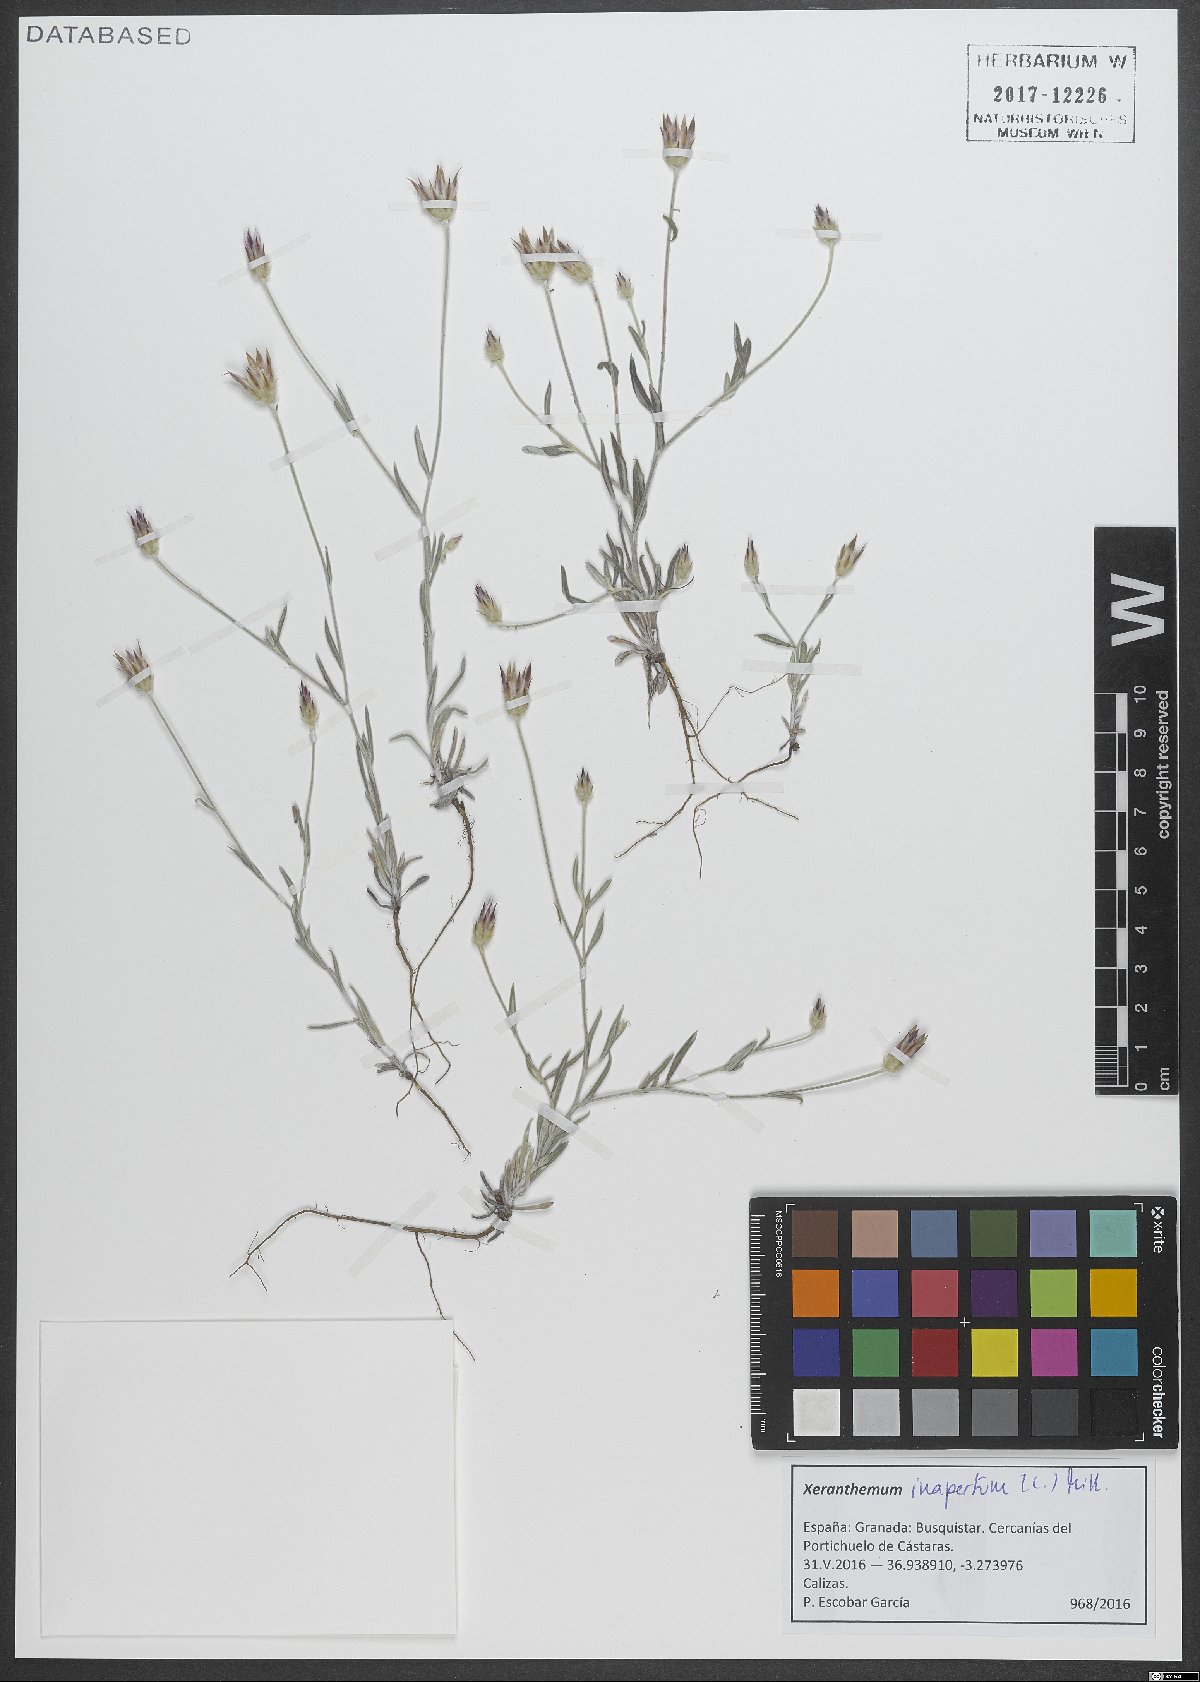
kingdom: Plantae
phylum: Tracheophyta
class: Magnoliopsida
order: Asterales
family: Asteraceae
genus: Xeranthemum
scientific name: Xeranthemum inapertum
